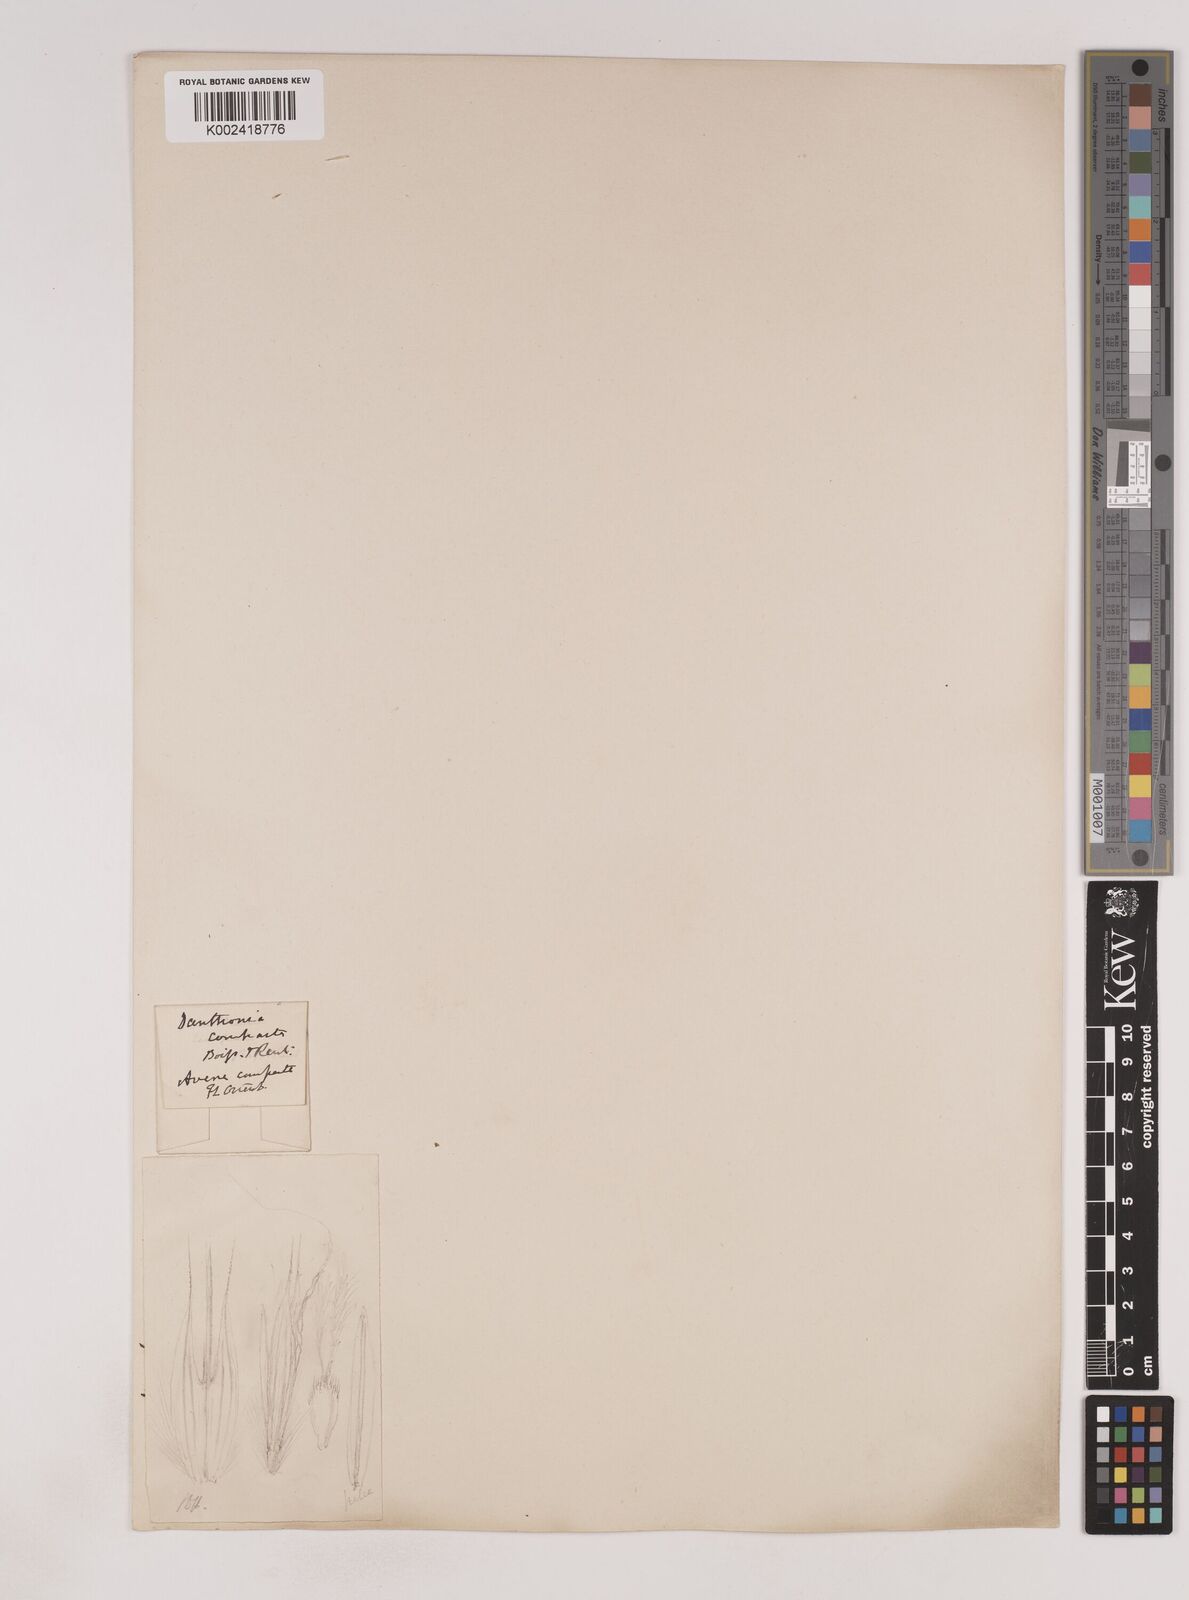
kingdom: Plantae
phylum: Tracheophyta
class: Liliopsida
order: Poales
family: Poaceae
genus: Danthoniastrum
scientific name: Danthoniastrum compactum
